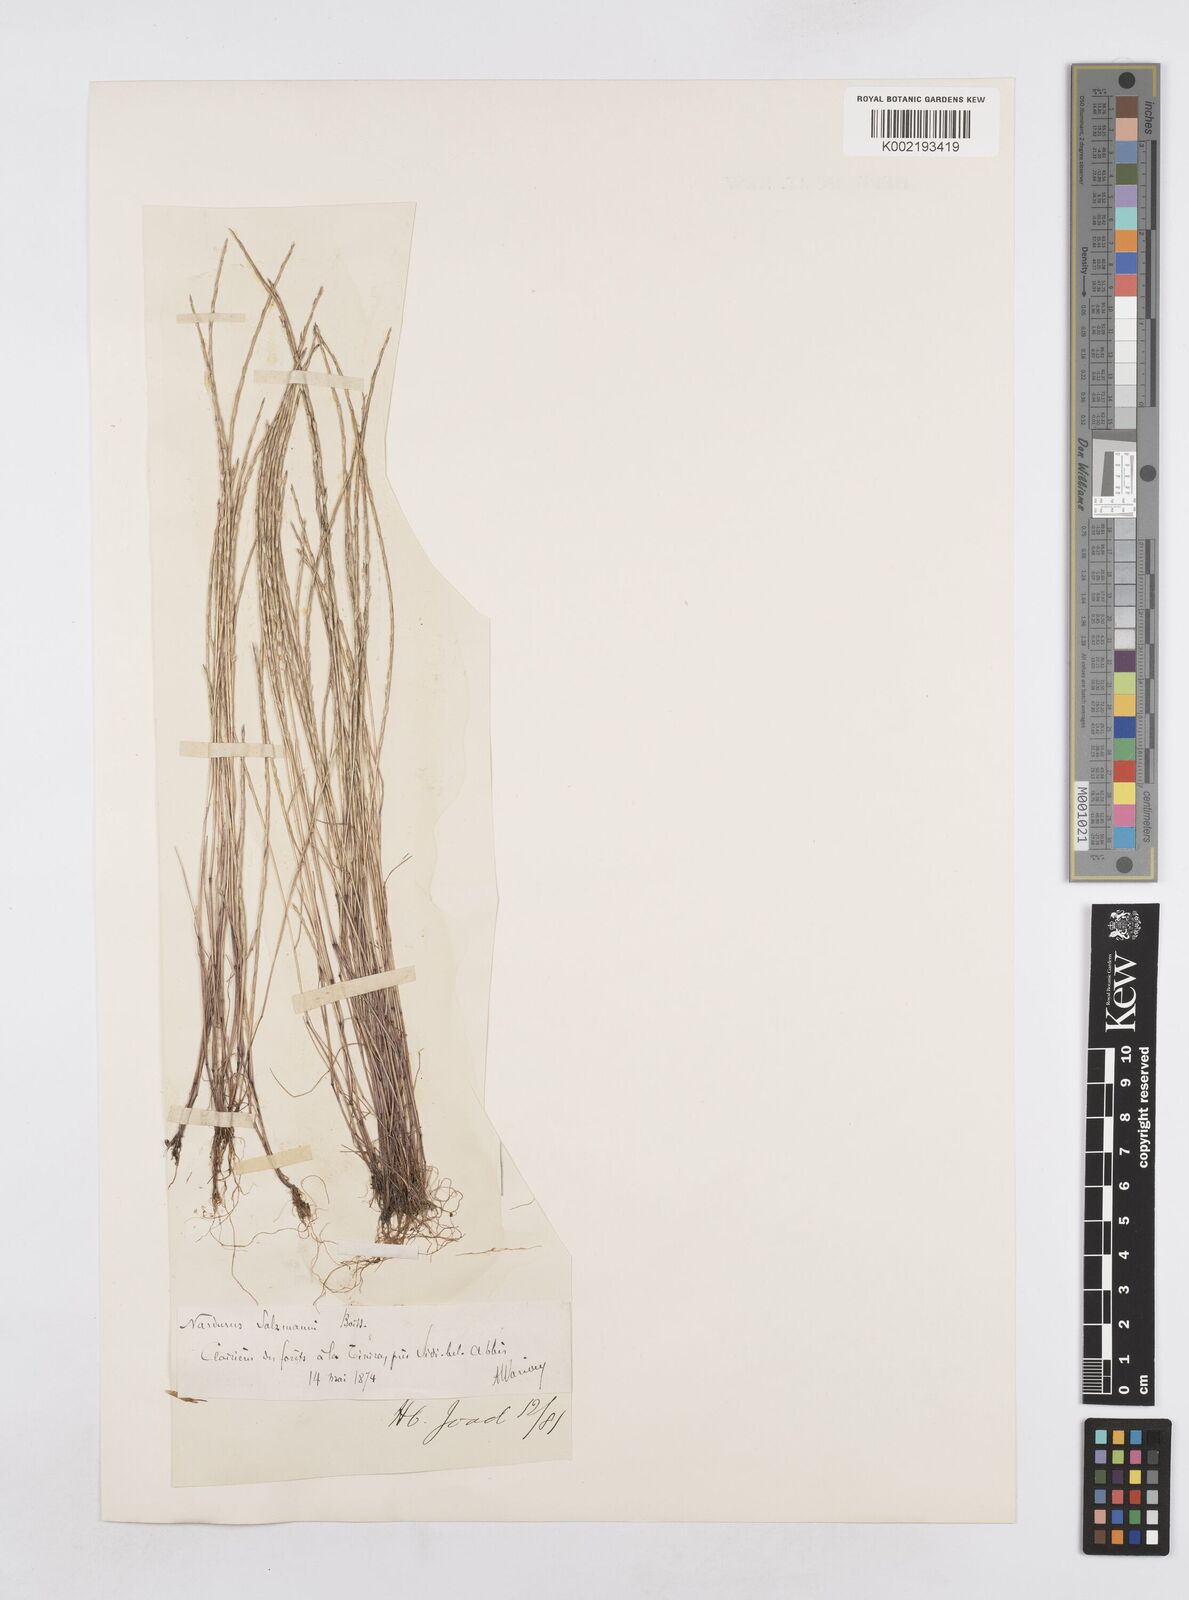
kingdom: Plantae
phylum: Tracheophyta
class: Liliopsida
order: Poales
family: Poaceae
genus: Festuca
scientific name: Festuca salzmannii
